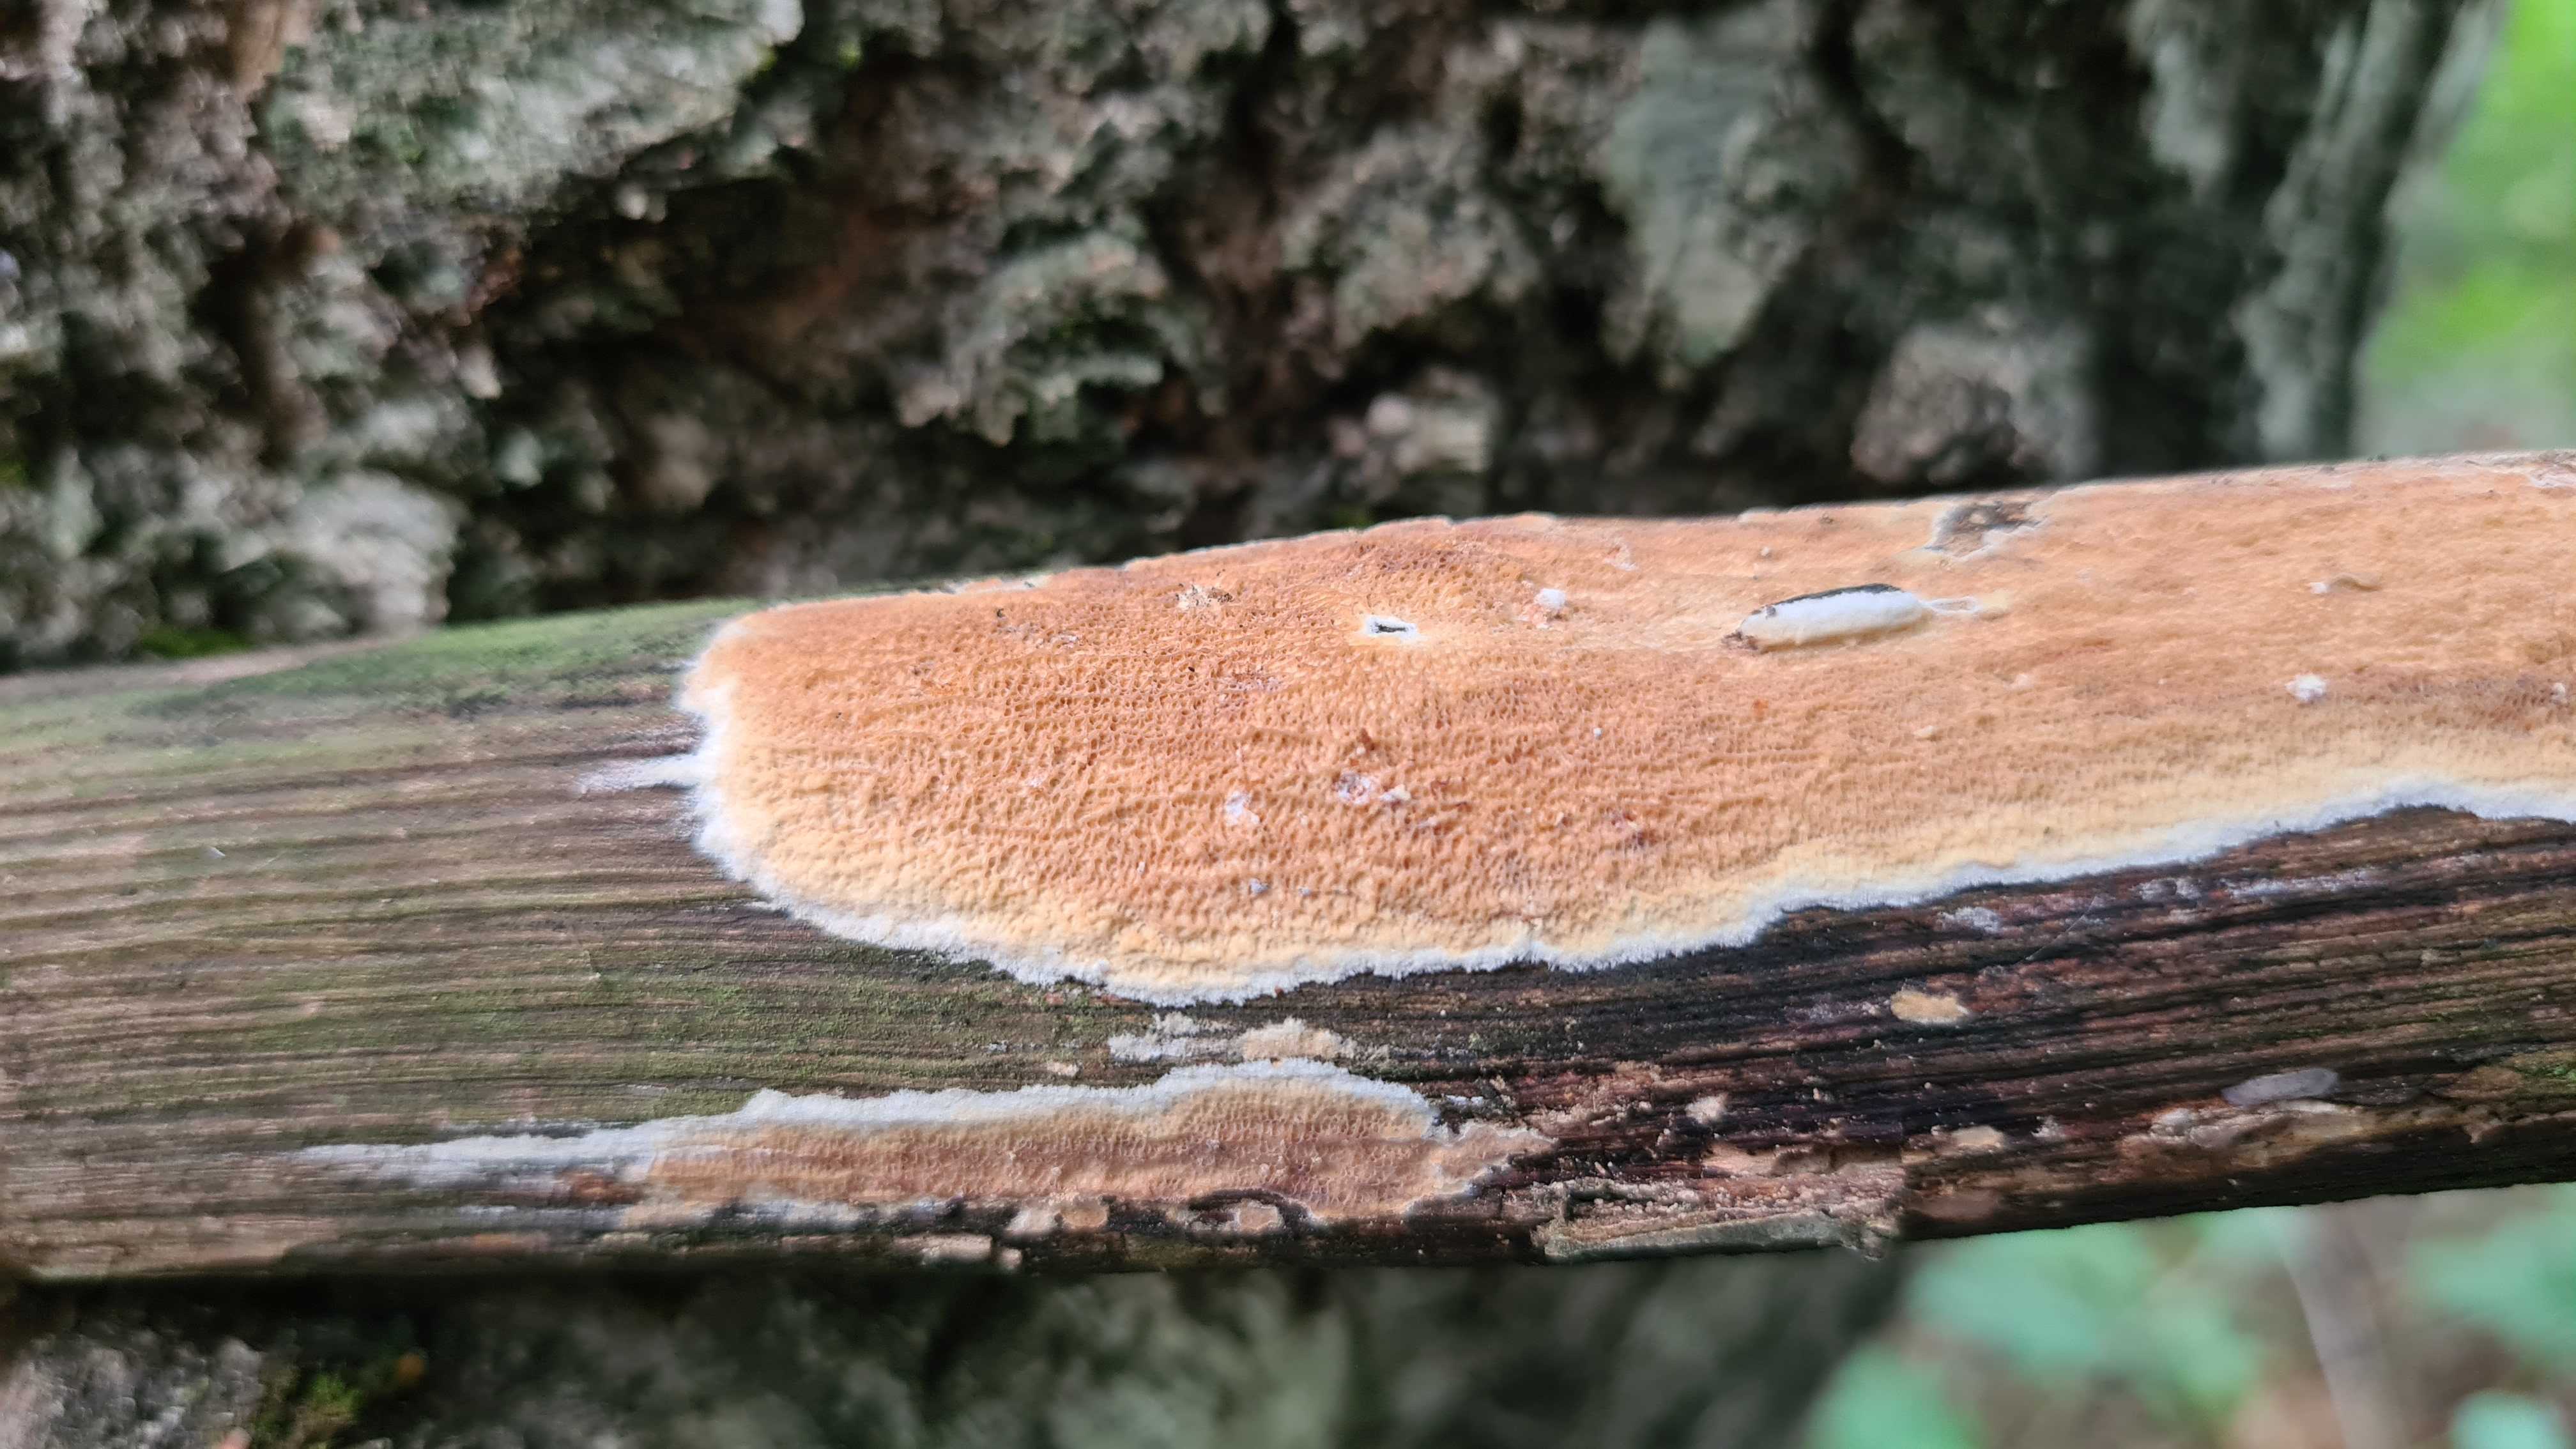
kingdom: Fungi
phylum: Basidiomycota
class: Agaricomycetes
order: Polyporales
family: Meruliaceae
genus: Phlebia
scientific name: Phlebia rufa
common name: ege-åresvamp
